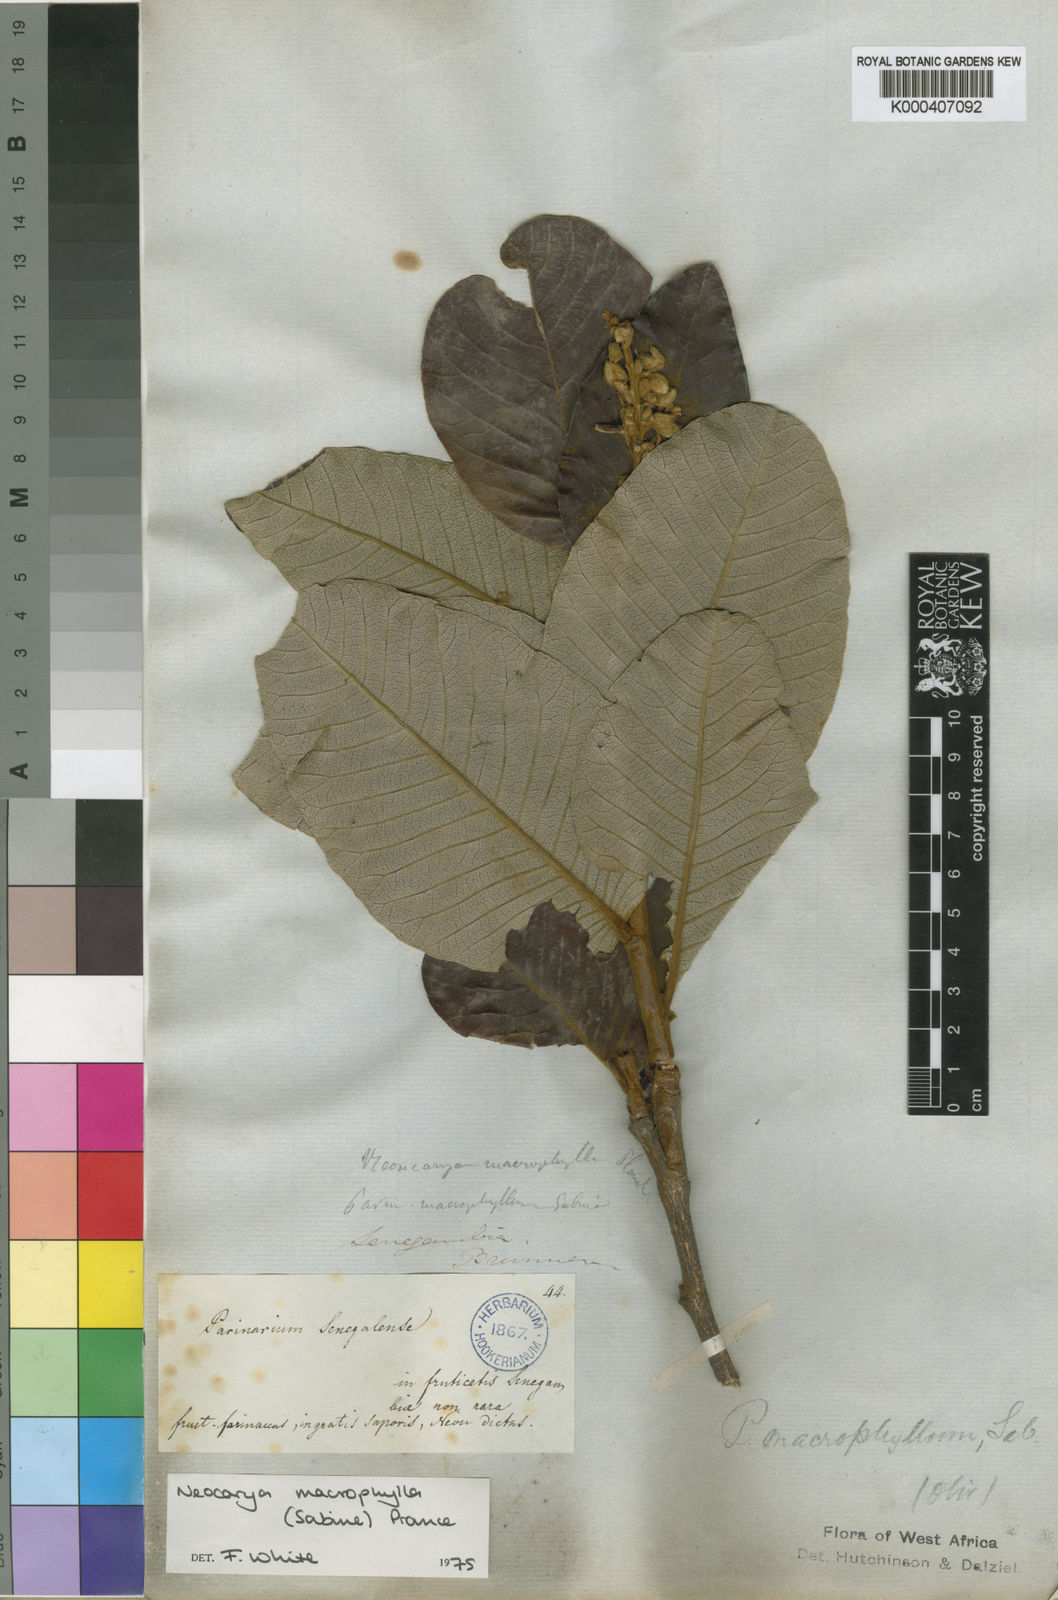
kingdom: Plantae
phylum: Tracheophyta
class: Magnoliopsida
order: Malpighiales
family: Chrysobalanaceae
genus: Neocarya
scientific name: Neocarya
